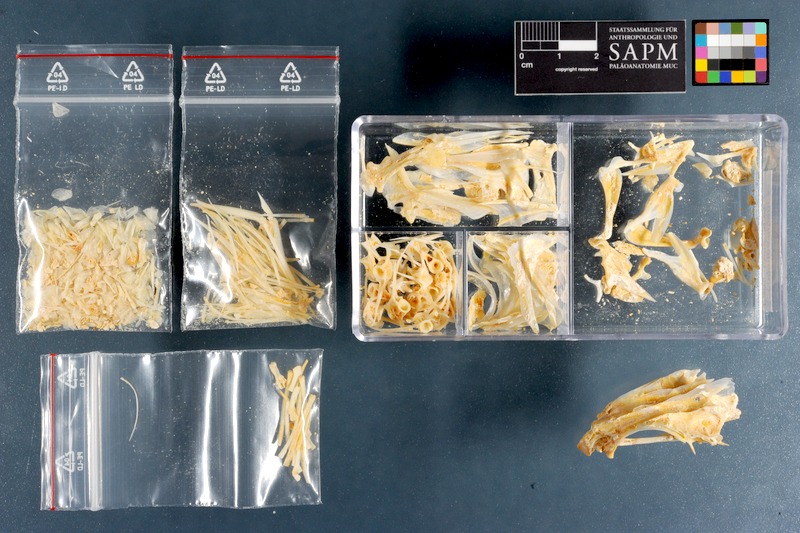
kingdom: Animalia
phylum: Chordata
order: Perciformes
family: Lutjanidae
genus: Lutjanus
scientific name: Lutjanus lutjanus
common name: Bigeye snapper
